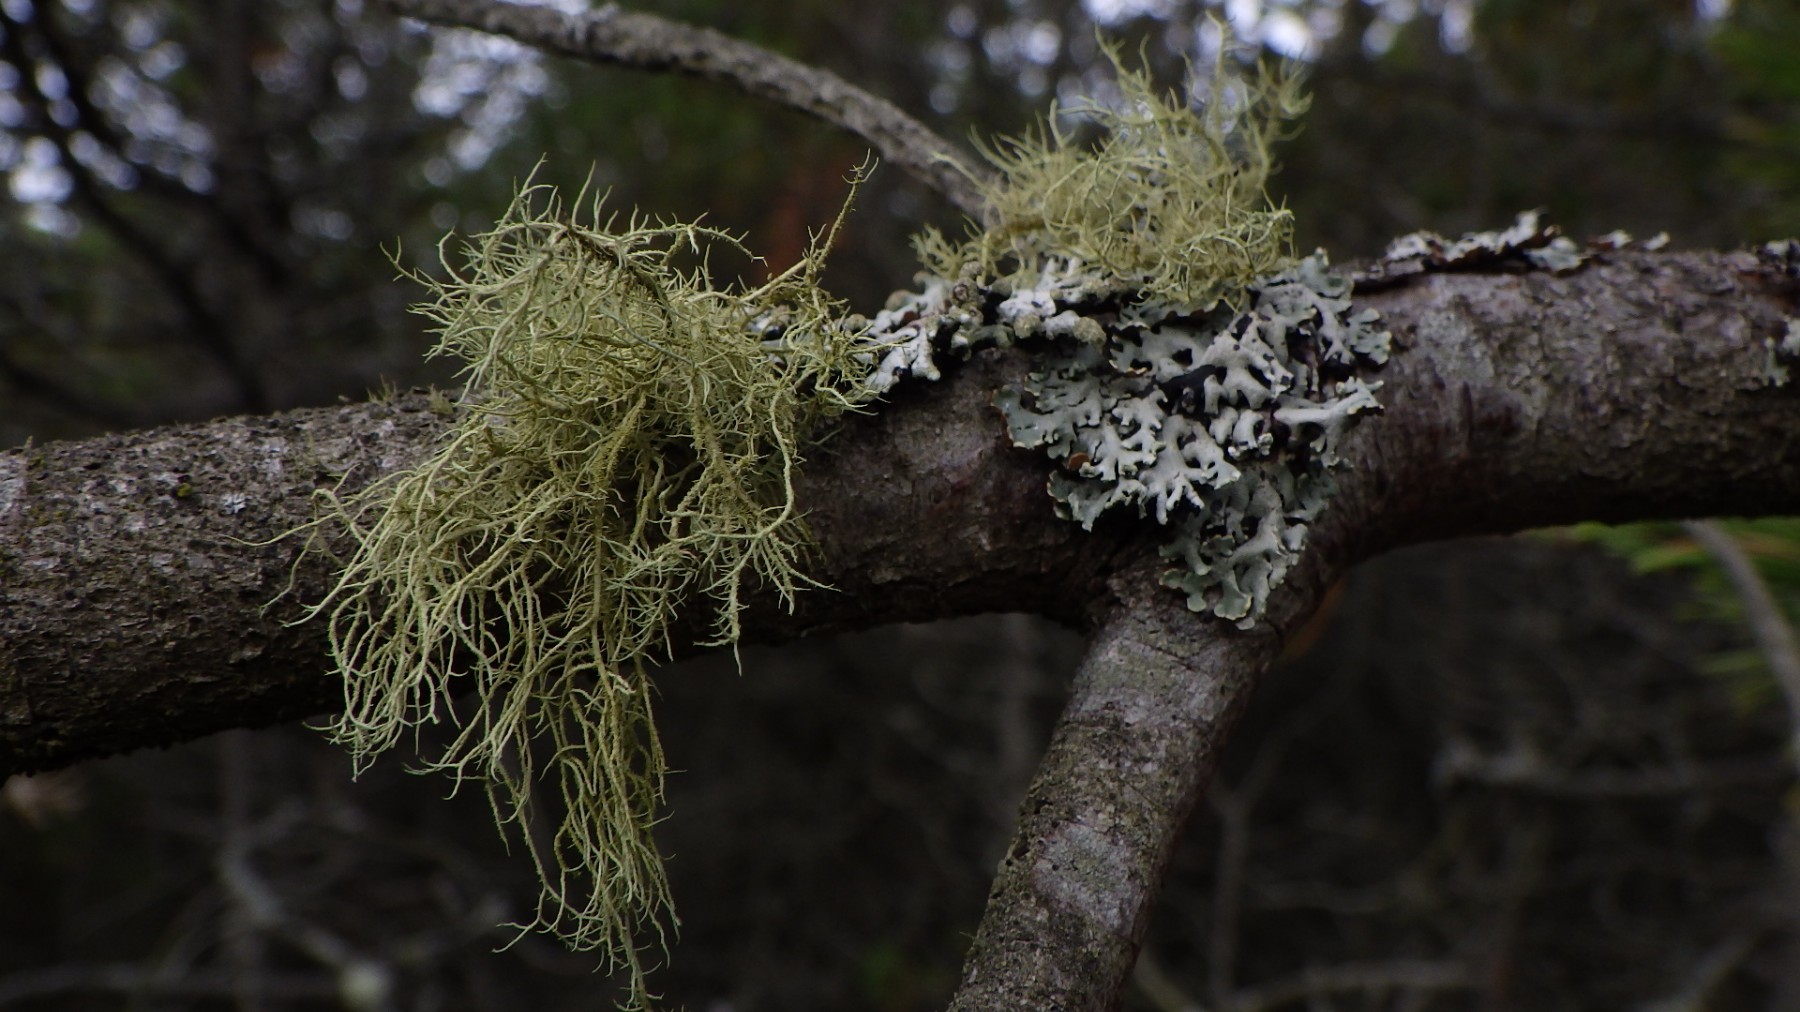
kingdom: Fungi
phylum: Ascomycota
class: Lecanoromycetes
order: Lecanorales
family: Parmeliaceae
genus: Usnea
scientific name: Usnea hirta
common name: liden skæglav
